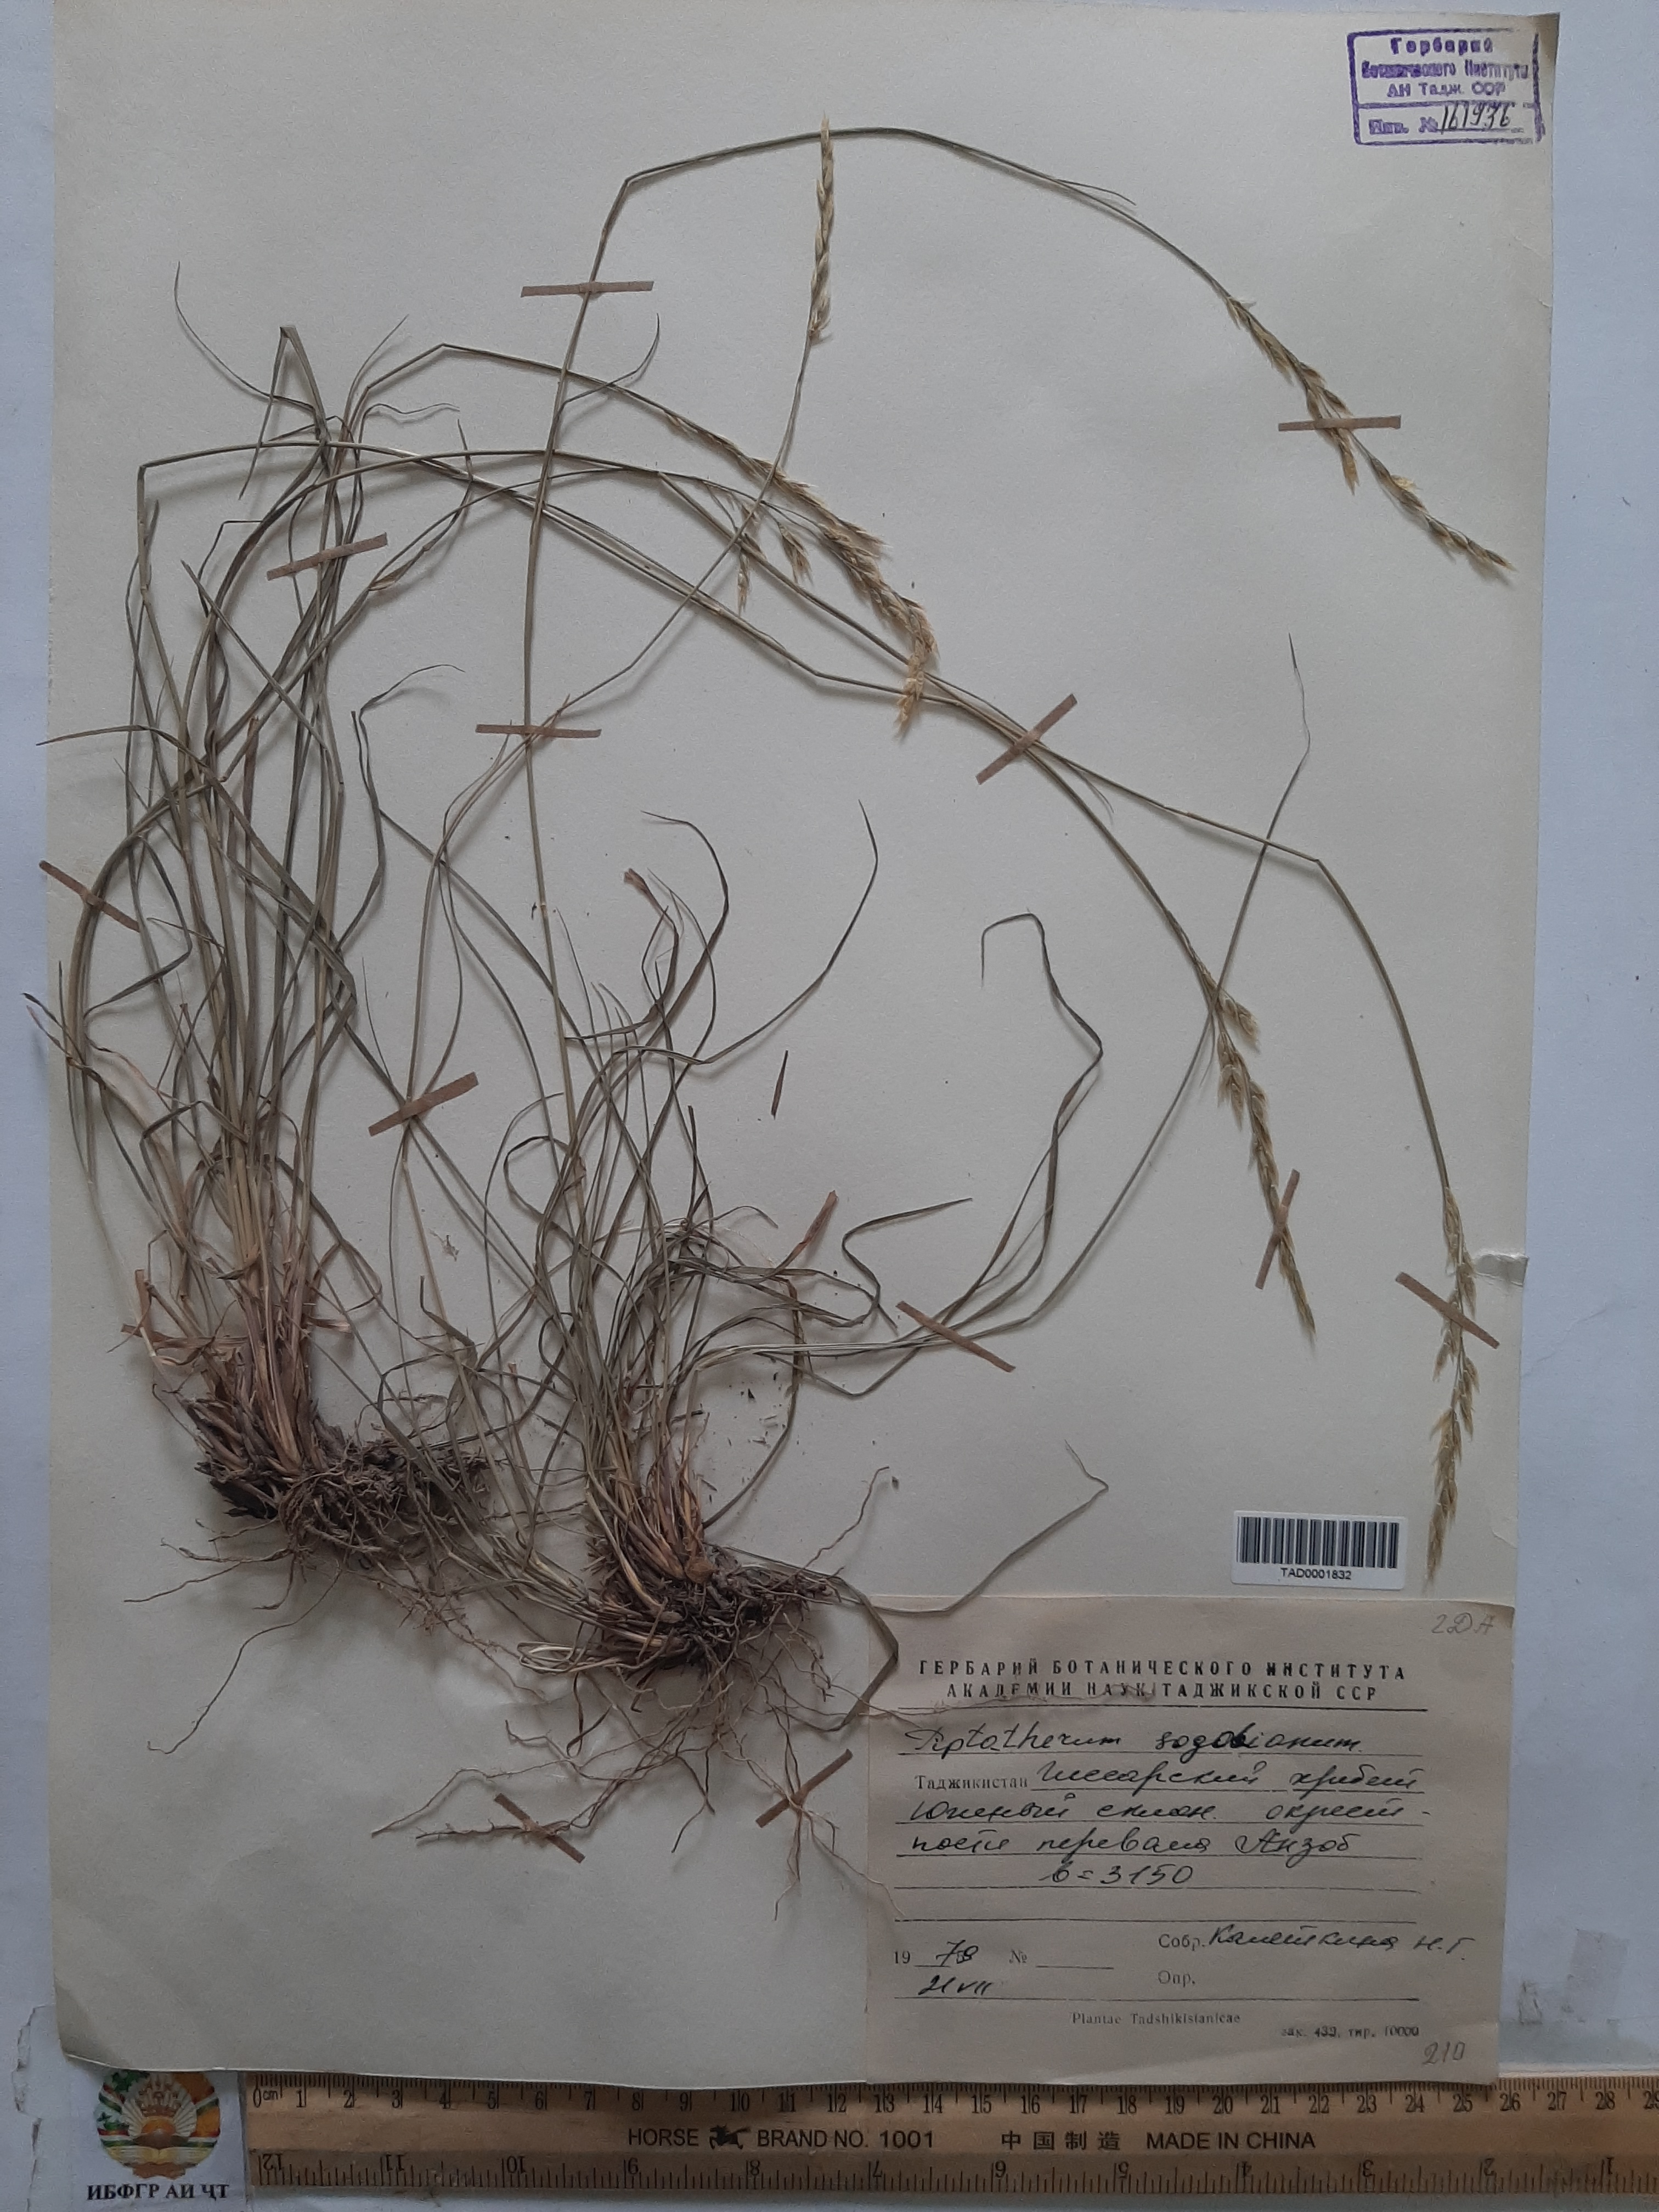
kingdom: Plantae
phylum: Tracheophyta
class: Liliopsida
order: Poales
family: Poaceae
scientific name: Poaceae
